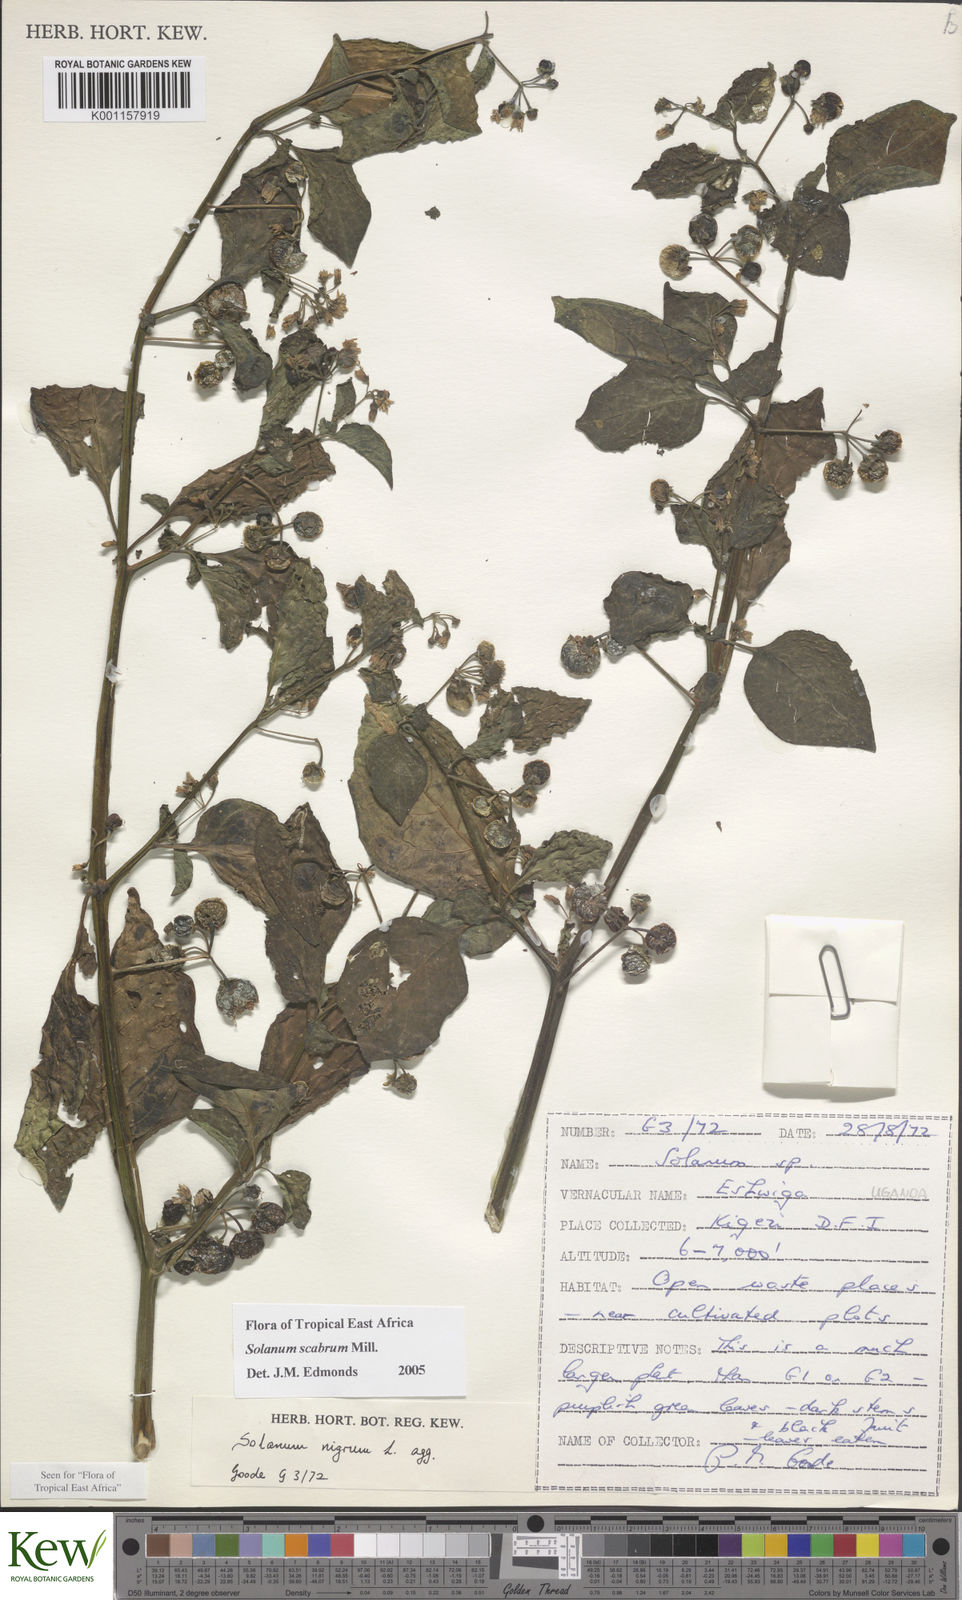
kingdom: Plantae
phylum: Tracheophyta
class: Magnoliopsida
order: Solanales
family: Solanaceae
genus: Solanum
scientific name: Solanum scabrum
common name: Garden-huckleberry
